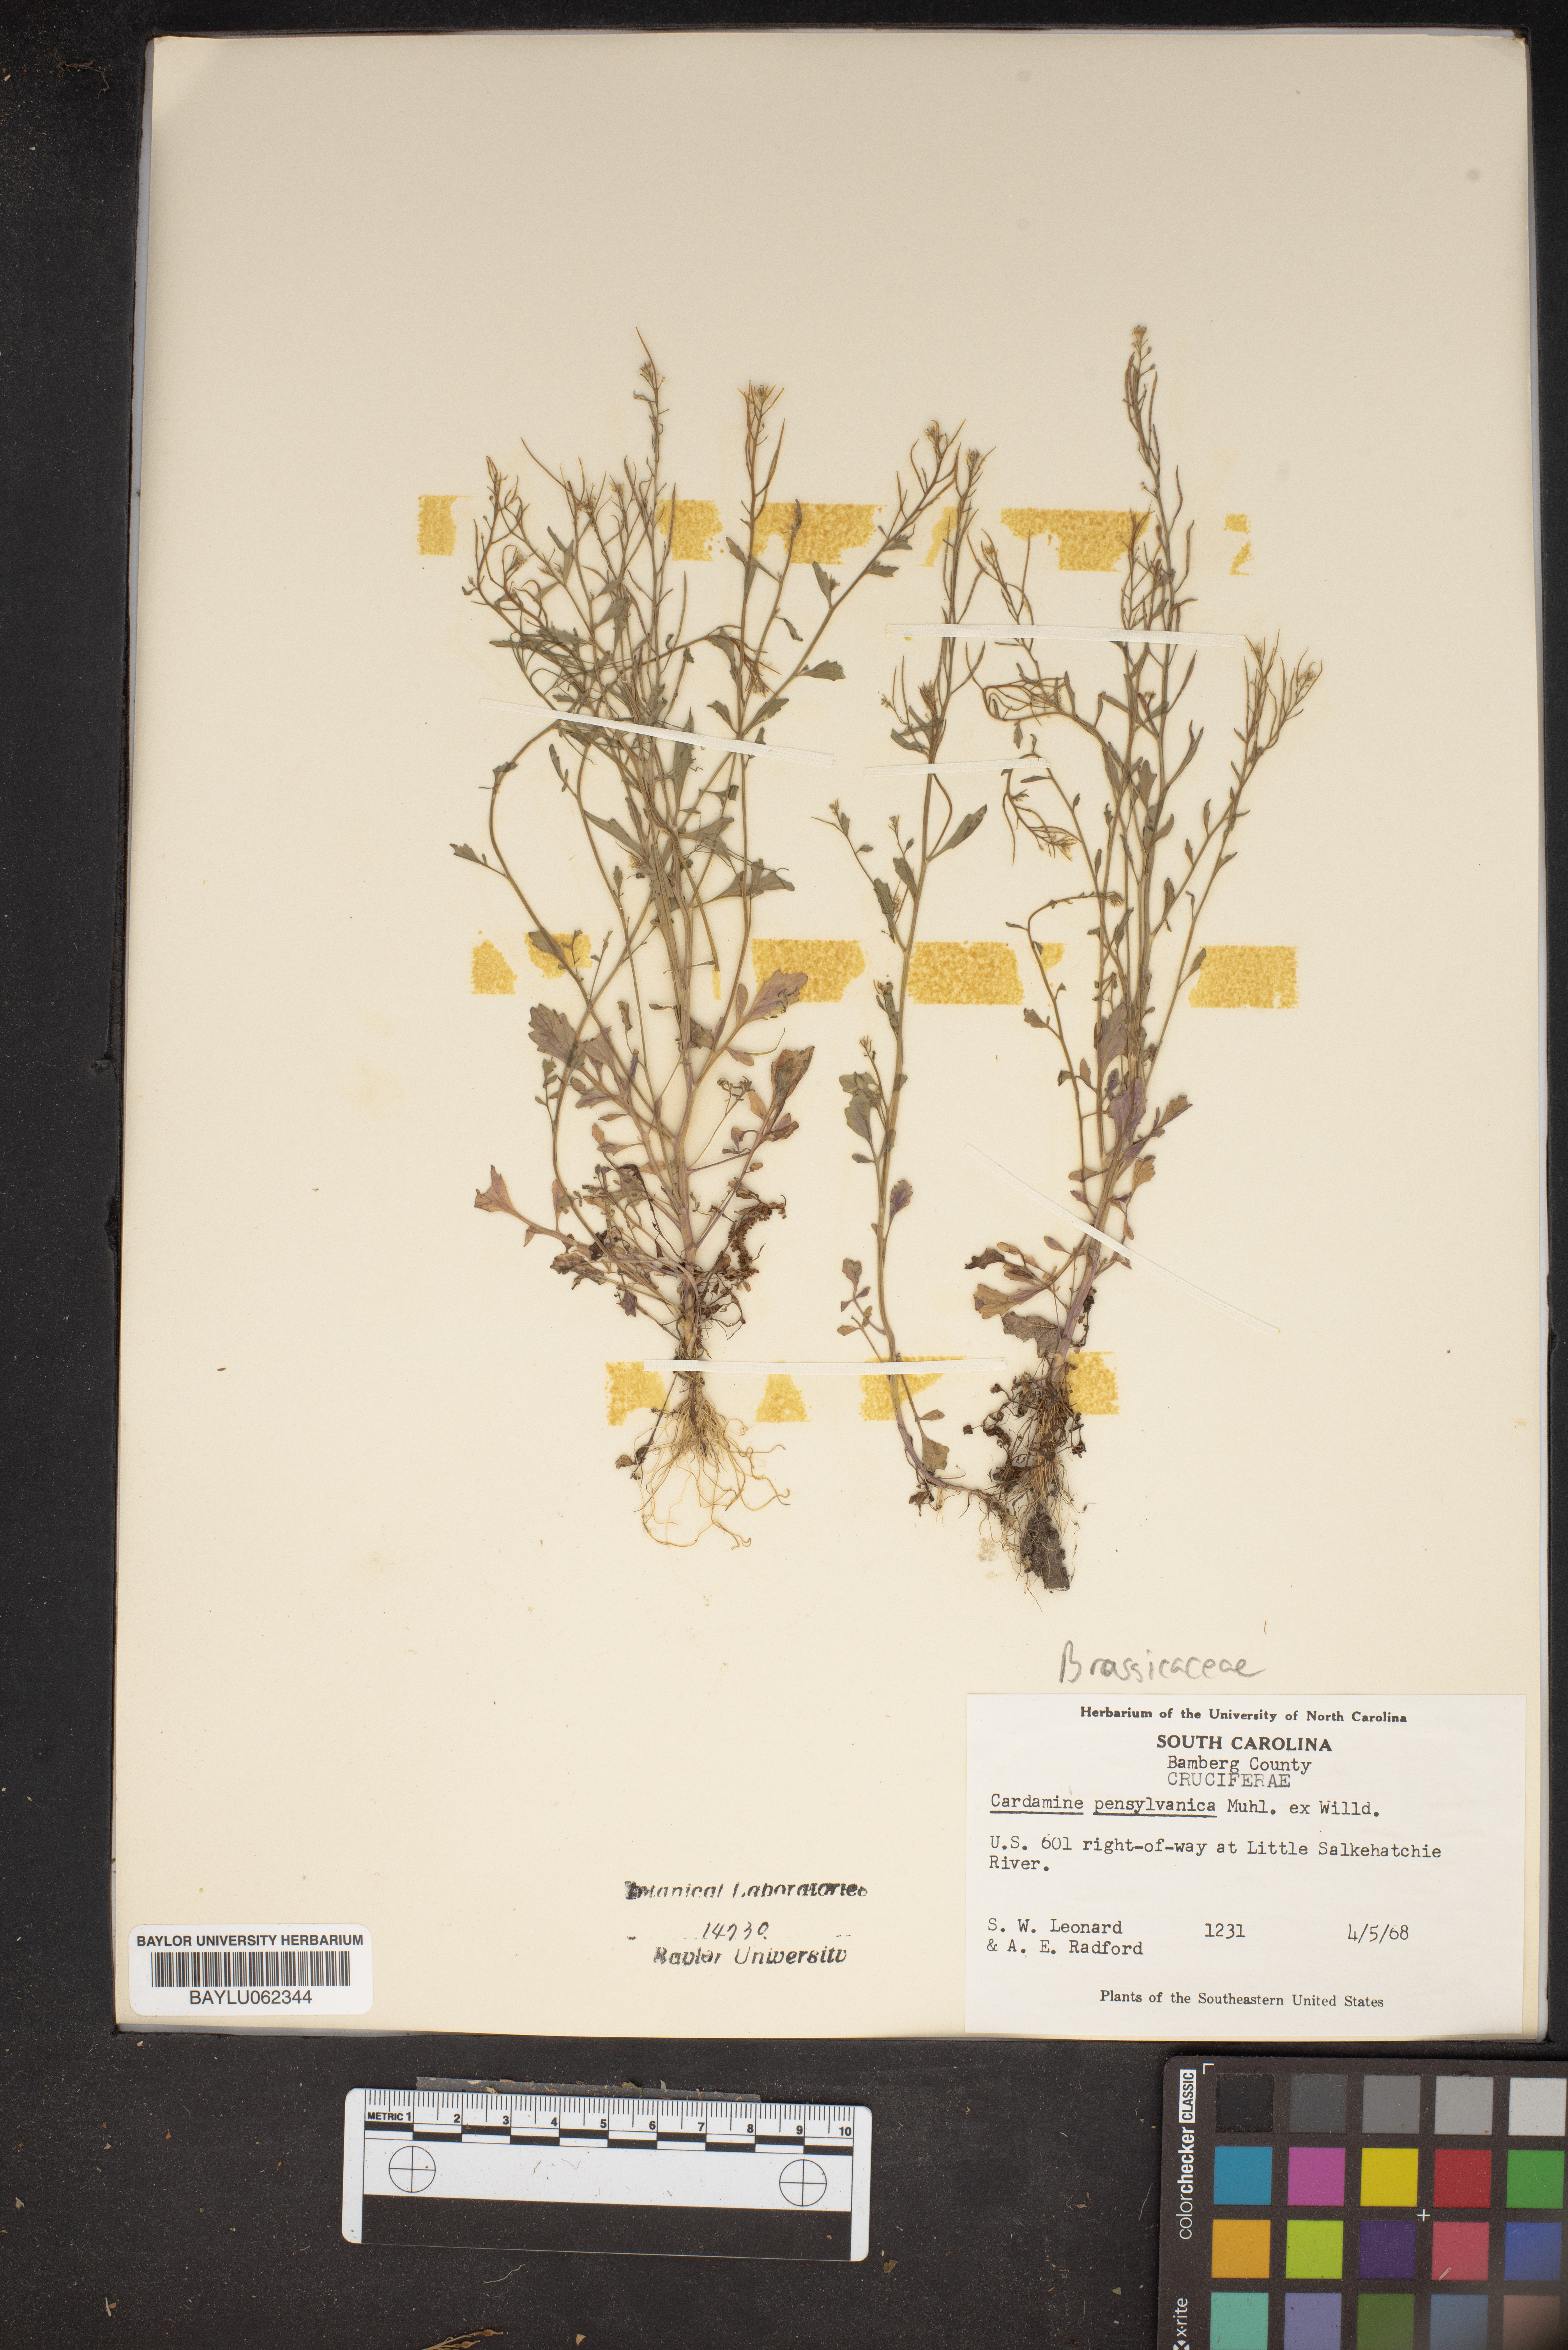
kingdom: Plantae
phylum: Tracheophyta
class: Magnoliopsida
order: Brassicales
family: Brassicaceae
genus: Cardamine
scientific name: Cardamine pensylvanica
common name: Pennsylvania bittercress
